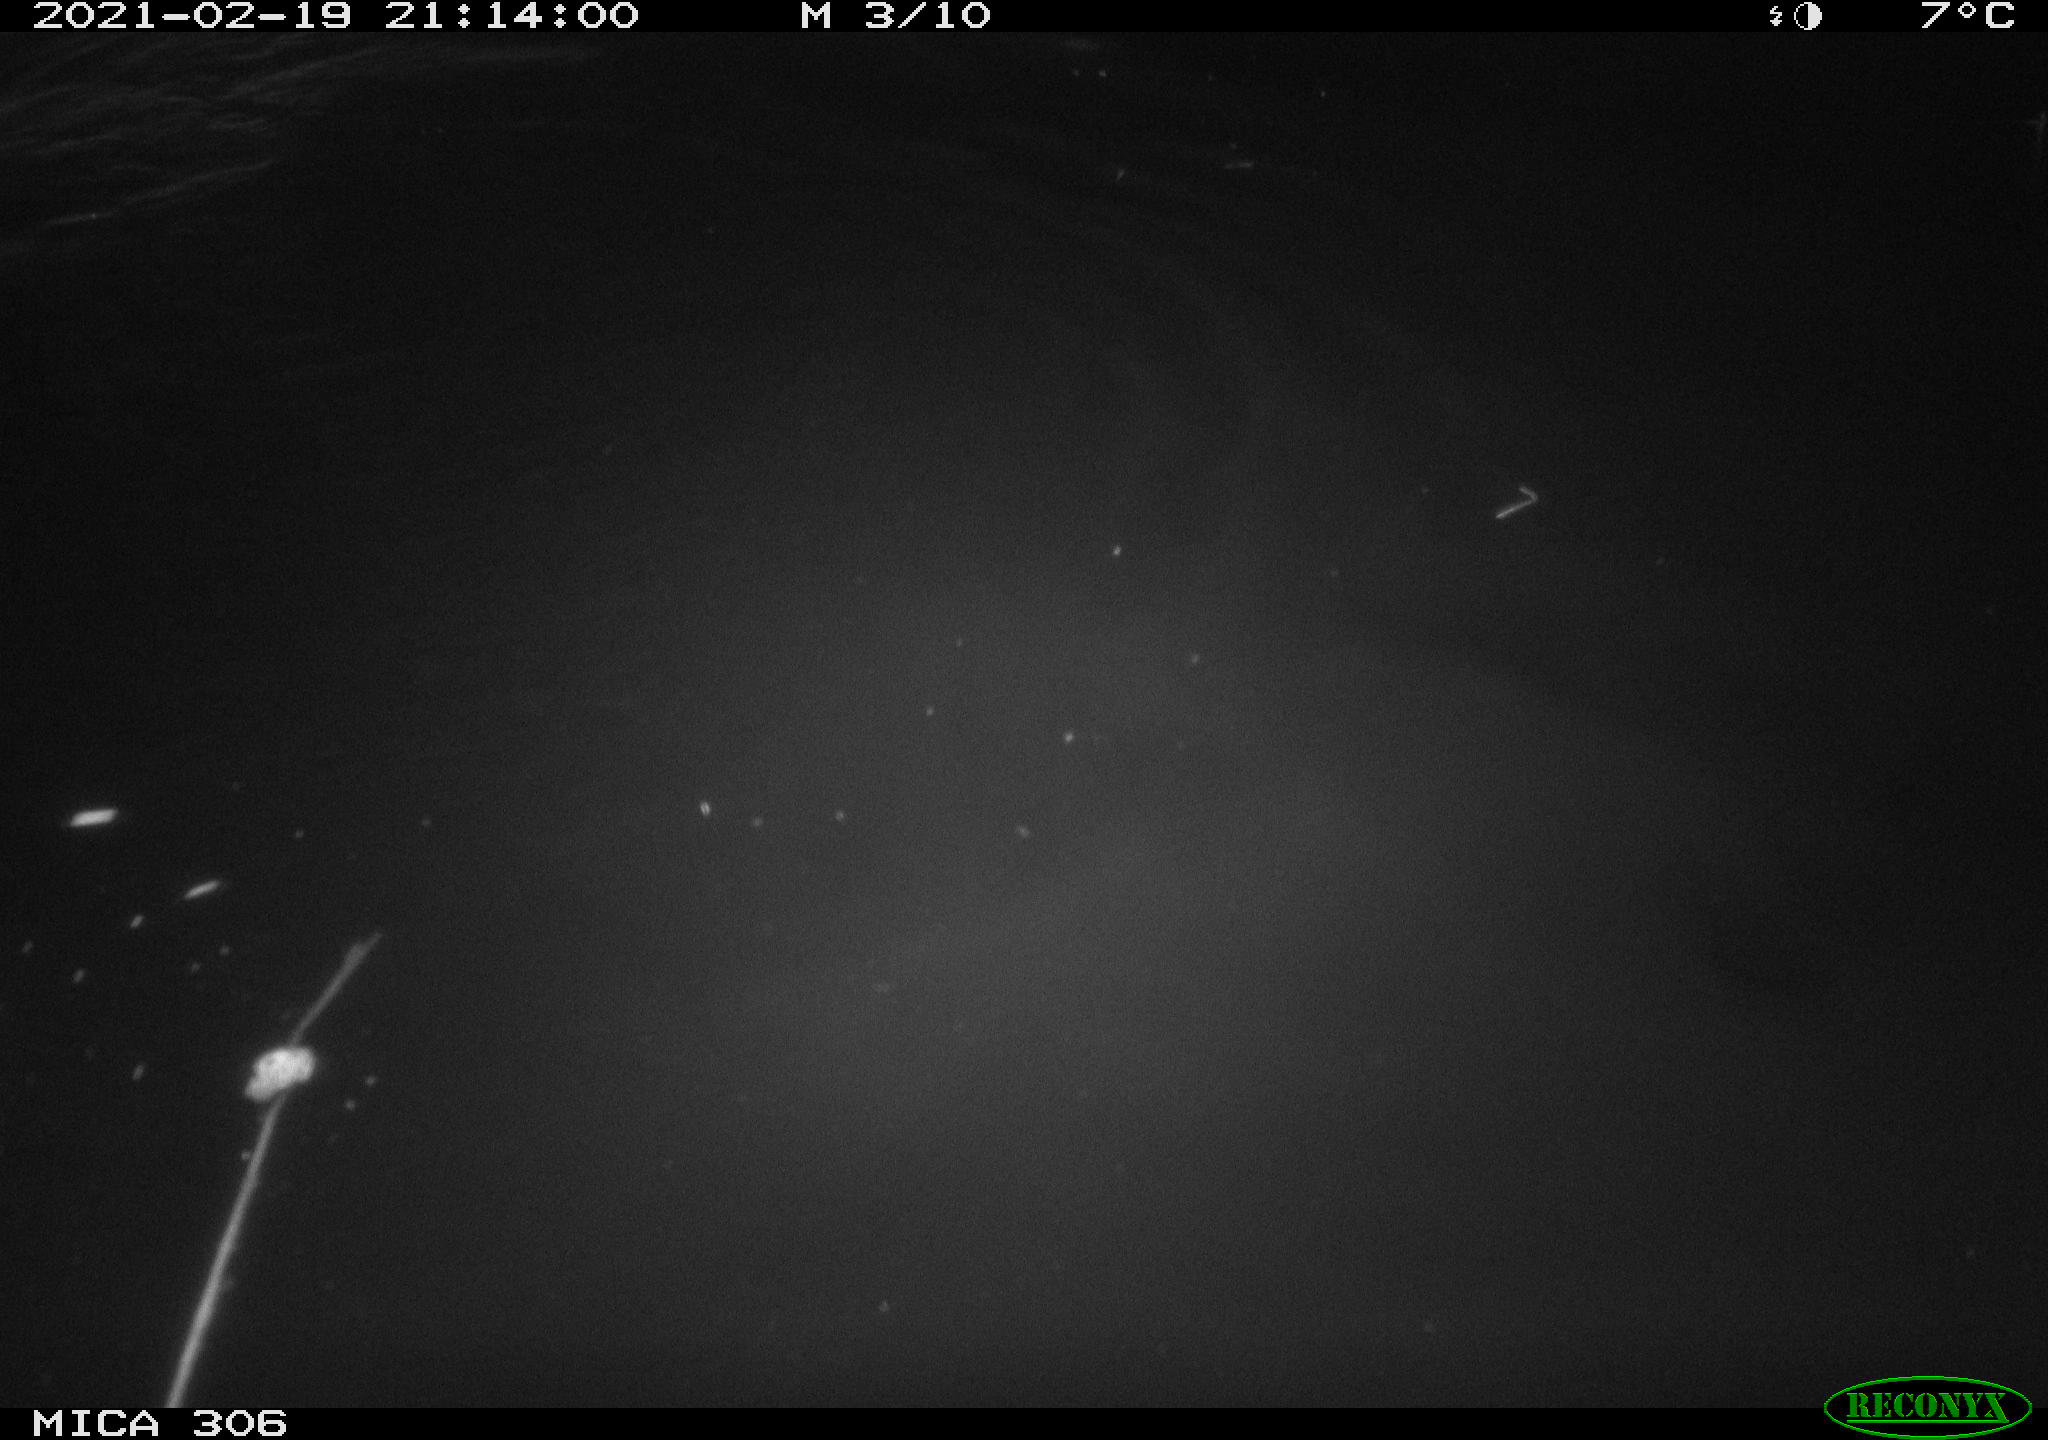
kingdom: Animalia
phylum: Chordata
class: Mammalia
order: Rodentia
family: Cricetidae
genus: Ondatra
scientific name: Ondatra zibethicus
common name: Muskrat
